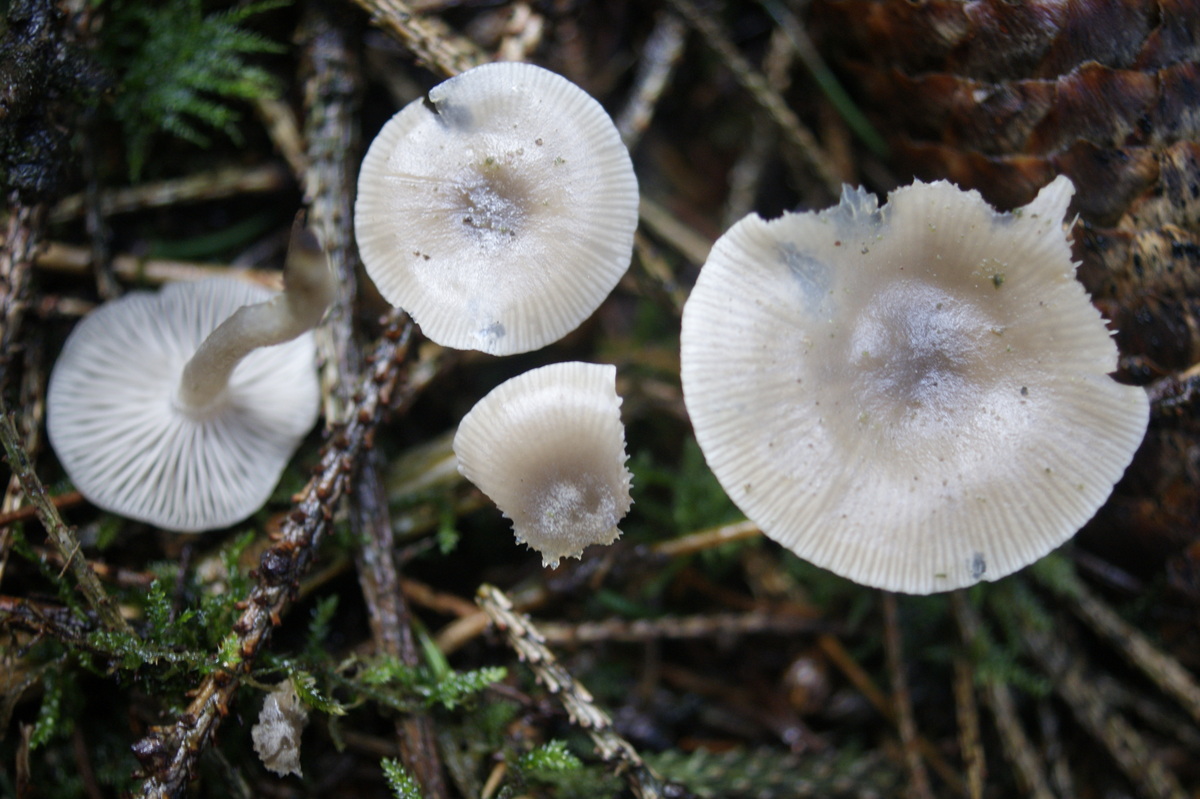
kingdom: Fungi
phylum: Basidiomycota
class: Agaricomycetes
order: Agaricales
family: Tricholomataceae
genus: Clitocybe
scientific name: Clitocybe vibecina
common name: randstribet tragthat
